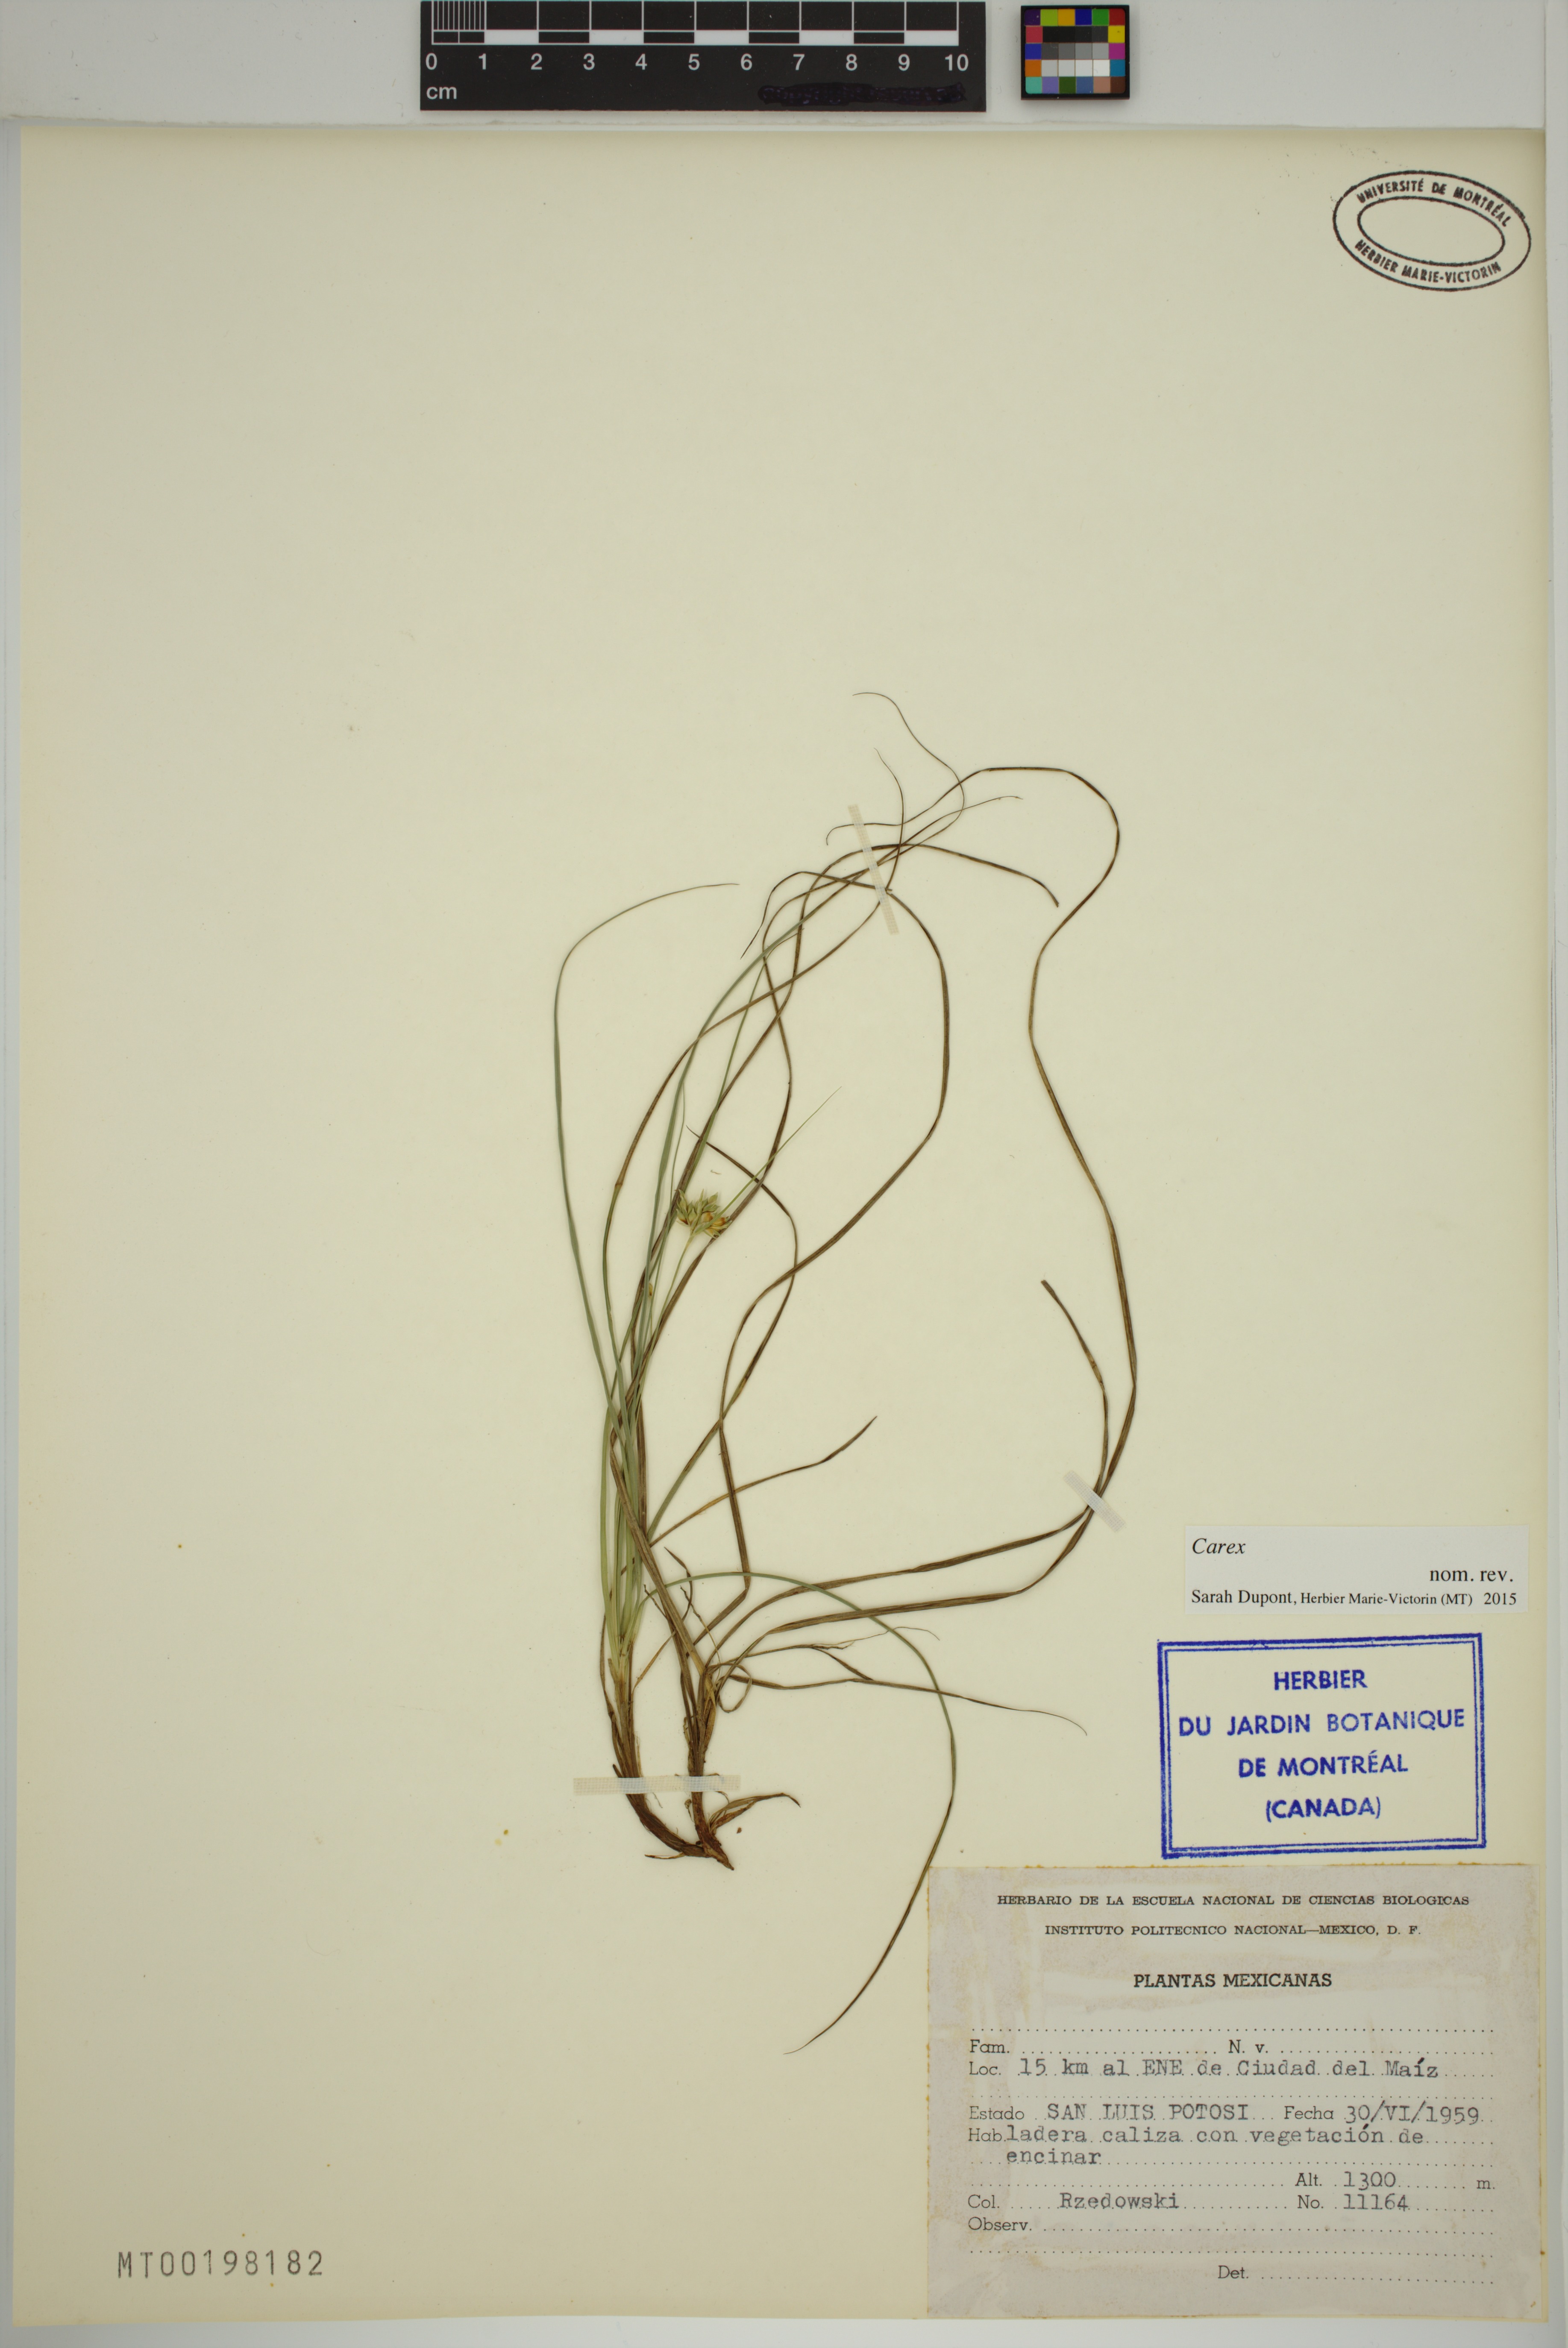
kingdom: Plantae
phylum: Tracheophyta
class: Liliopsida
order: Poales
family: Cyperaceae
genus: Carex
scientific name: Carex
